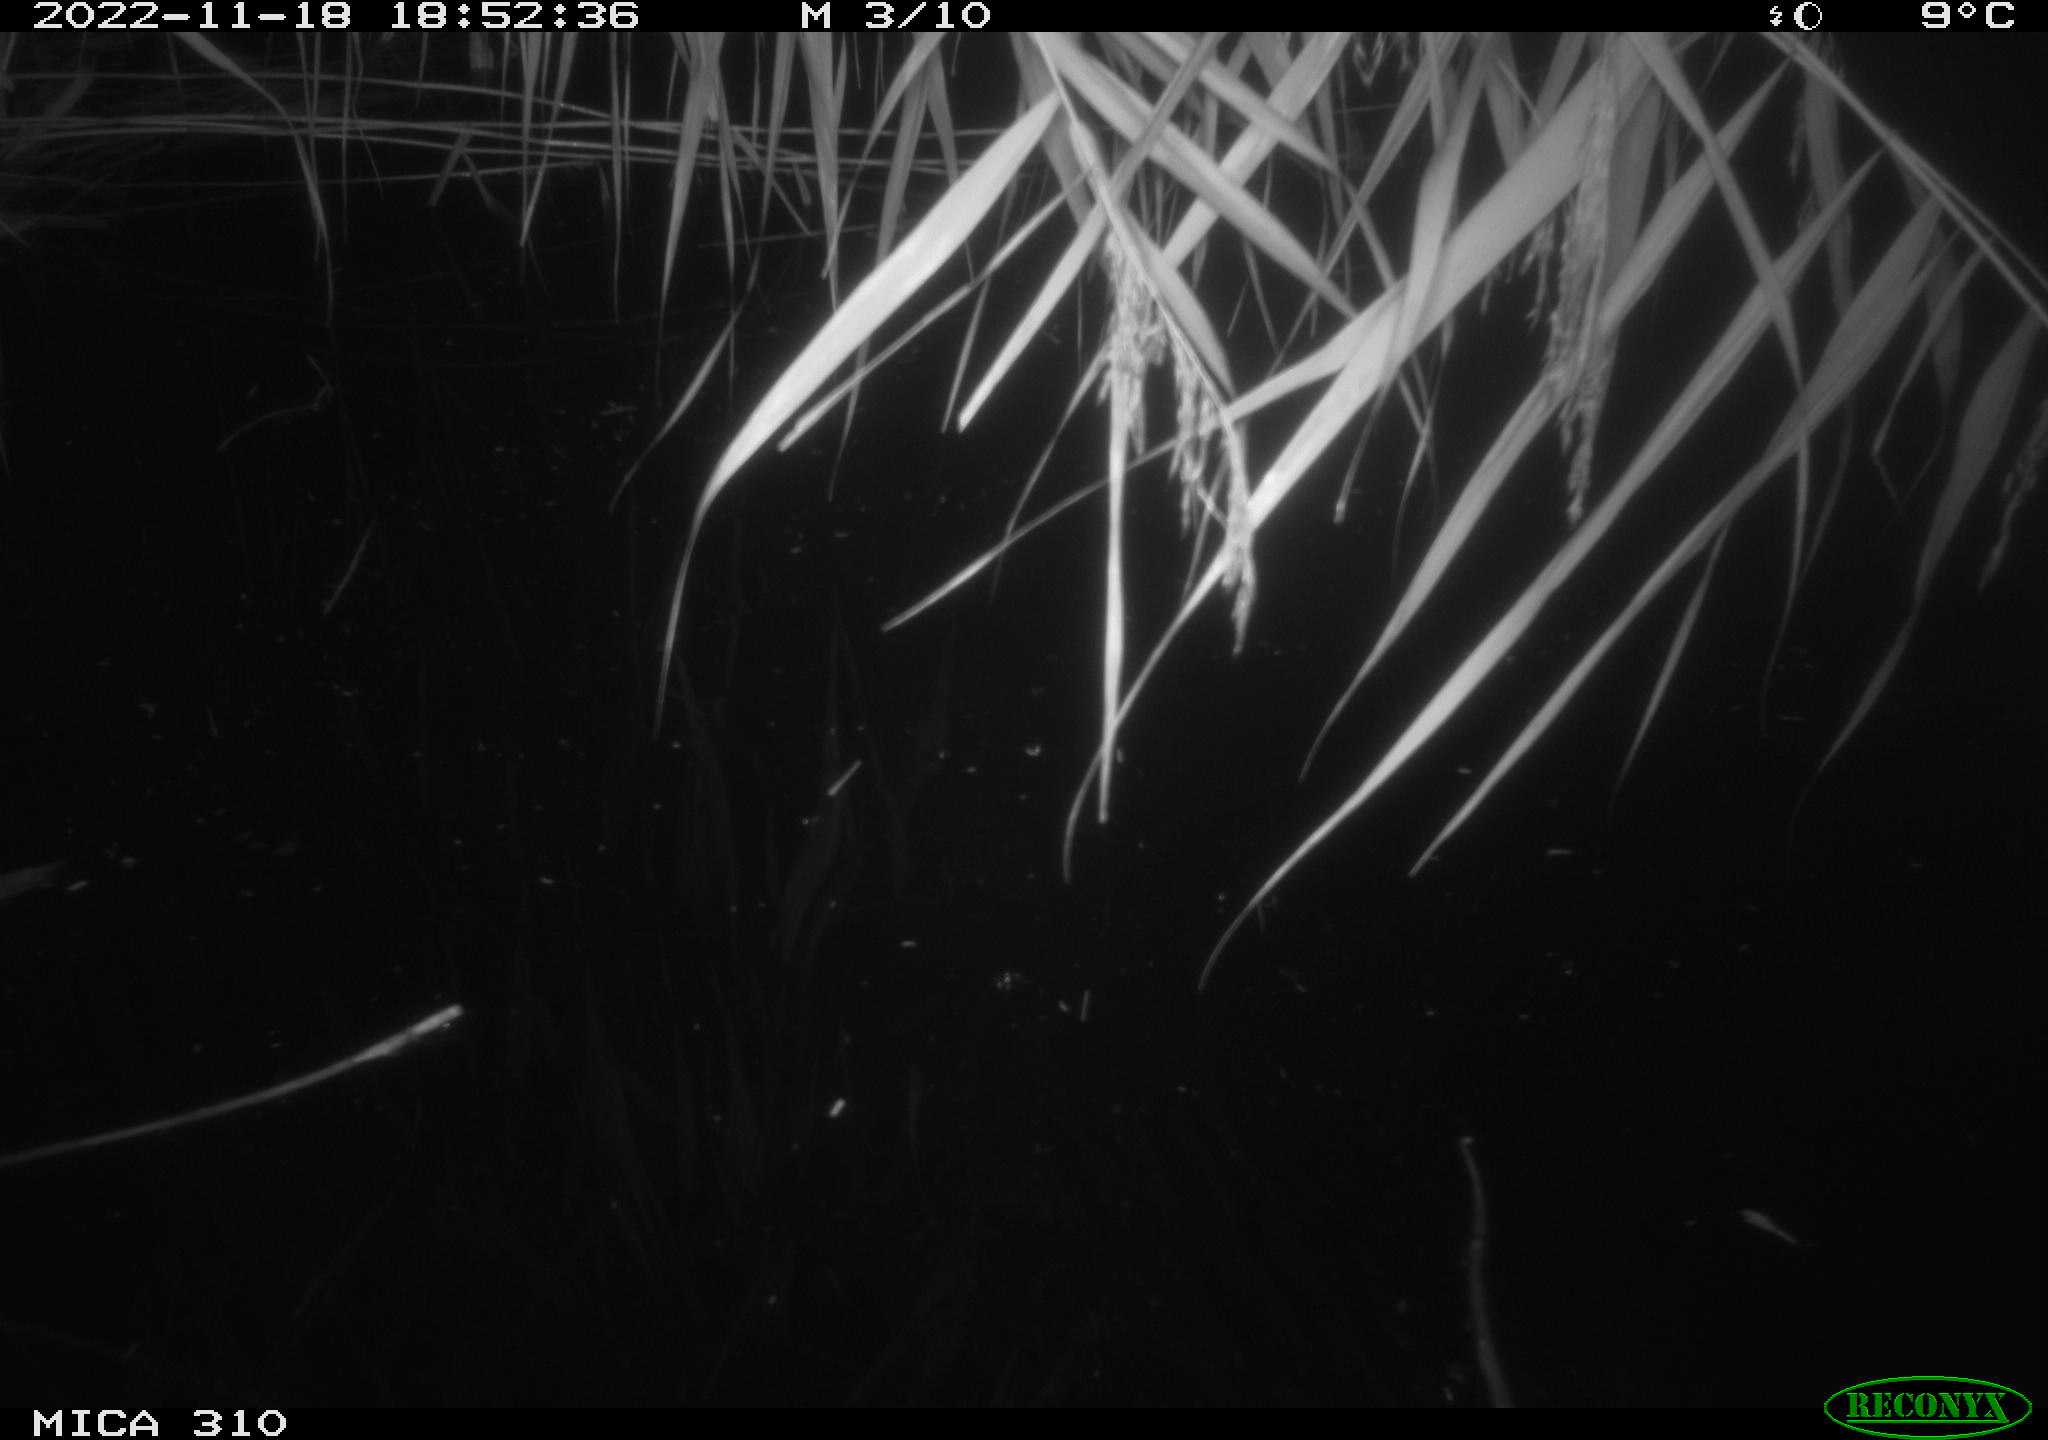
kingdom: Animalia
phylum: Chordata
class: Mammalia
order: Rodentia
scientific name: Rodentia
